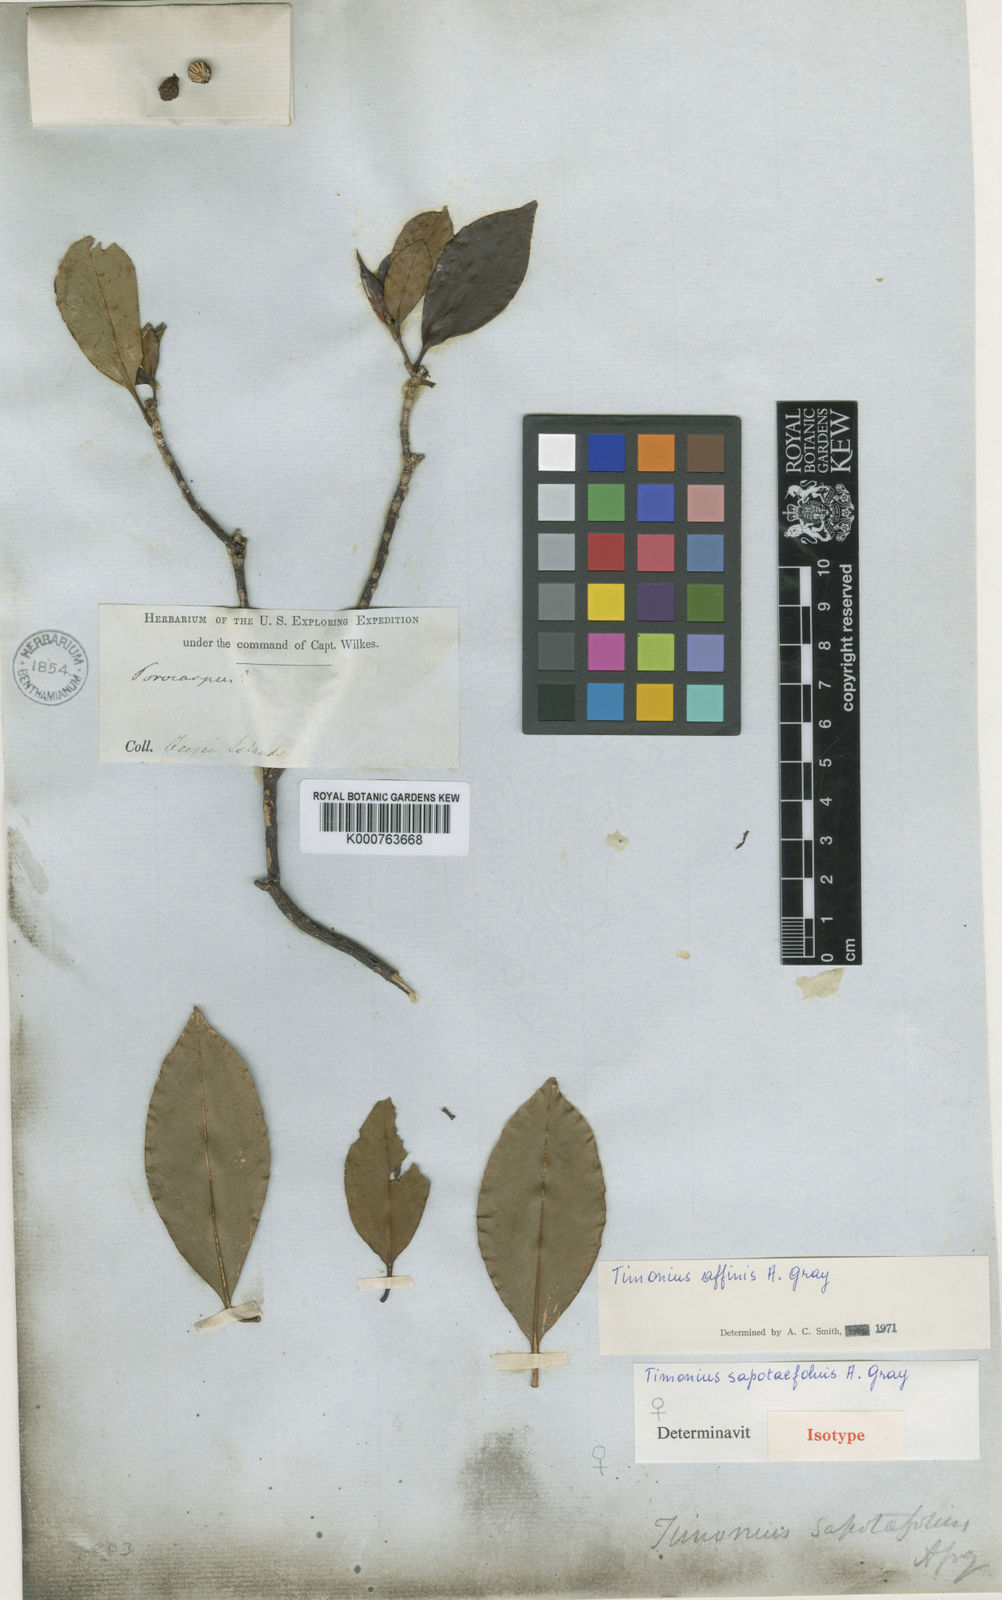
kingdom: Plantae
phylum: Tracheophyta
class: Magnoliopsida
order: Gentianales
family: Rubiaceae
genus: Timonius
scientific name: Timonius affinis
